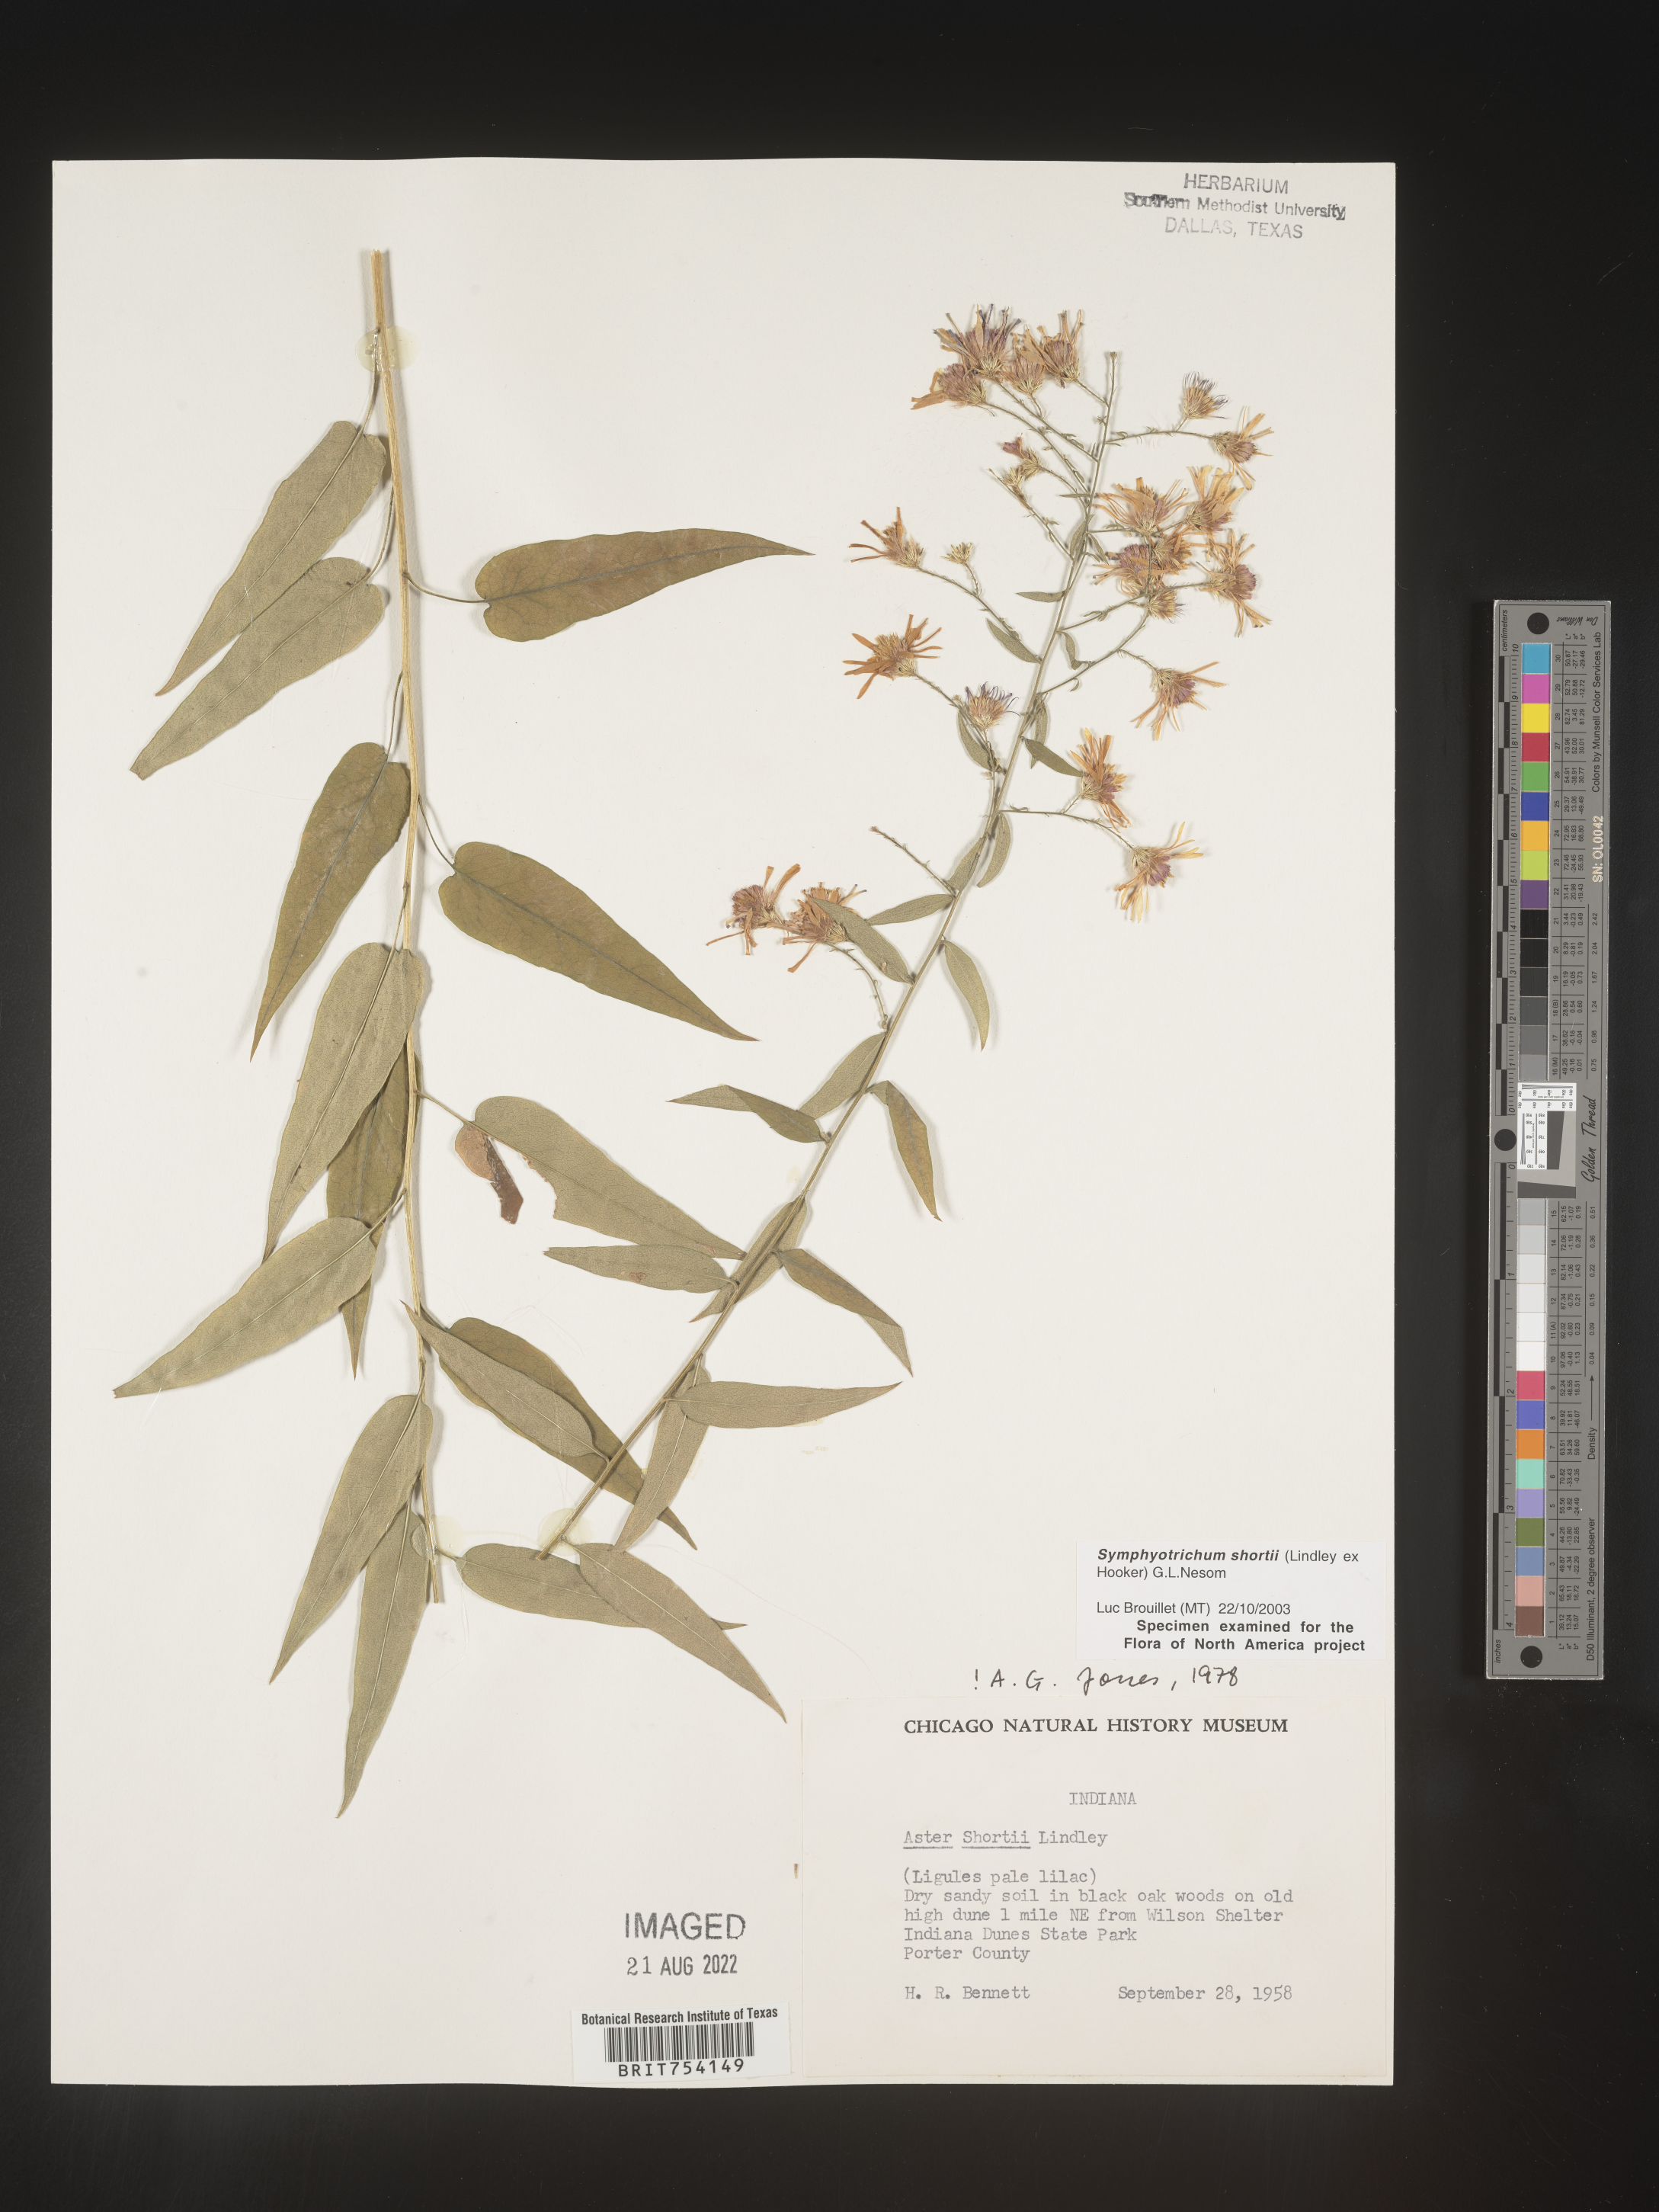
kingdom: Plantae
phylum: Tracheophyta
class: Magnoliopsida
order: Asterales
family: Asteraceae
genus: Symphyotrichum
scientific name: Symphyotrichum shortii
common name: Short's aster
